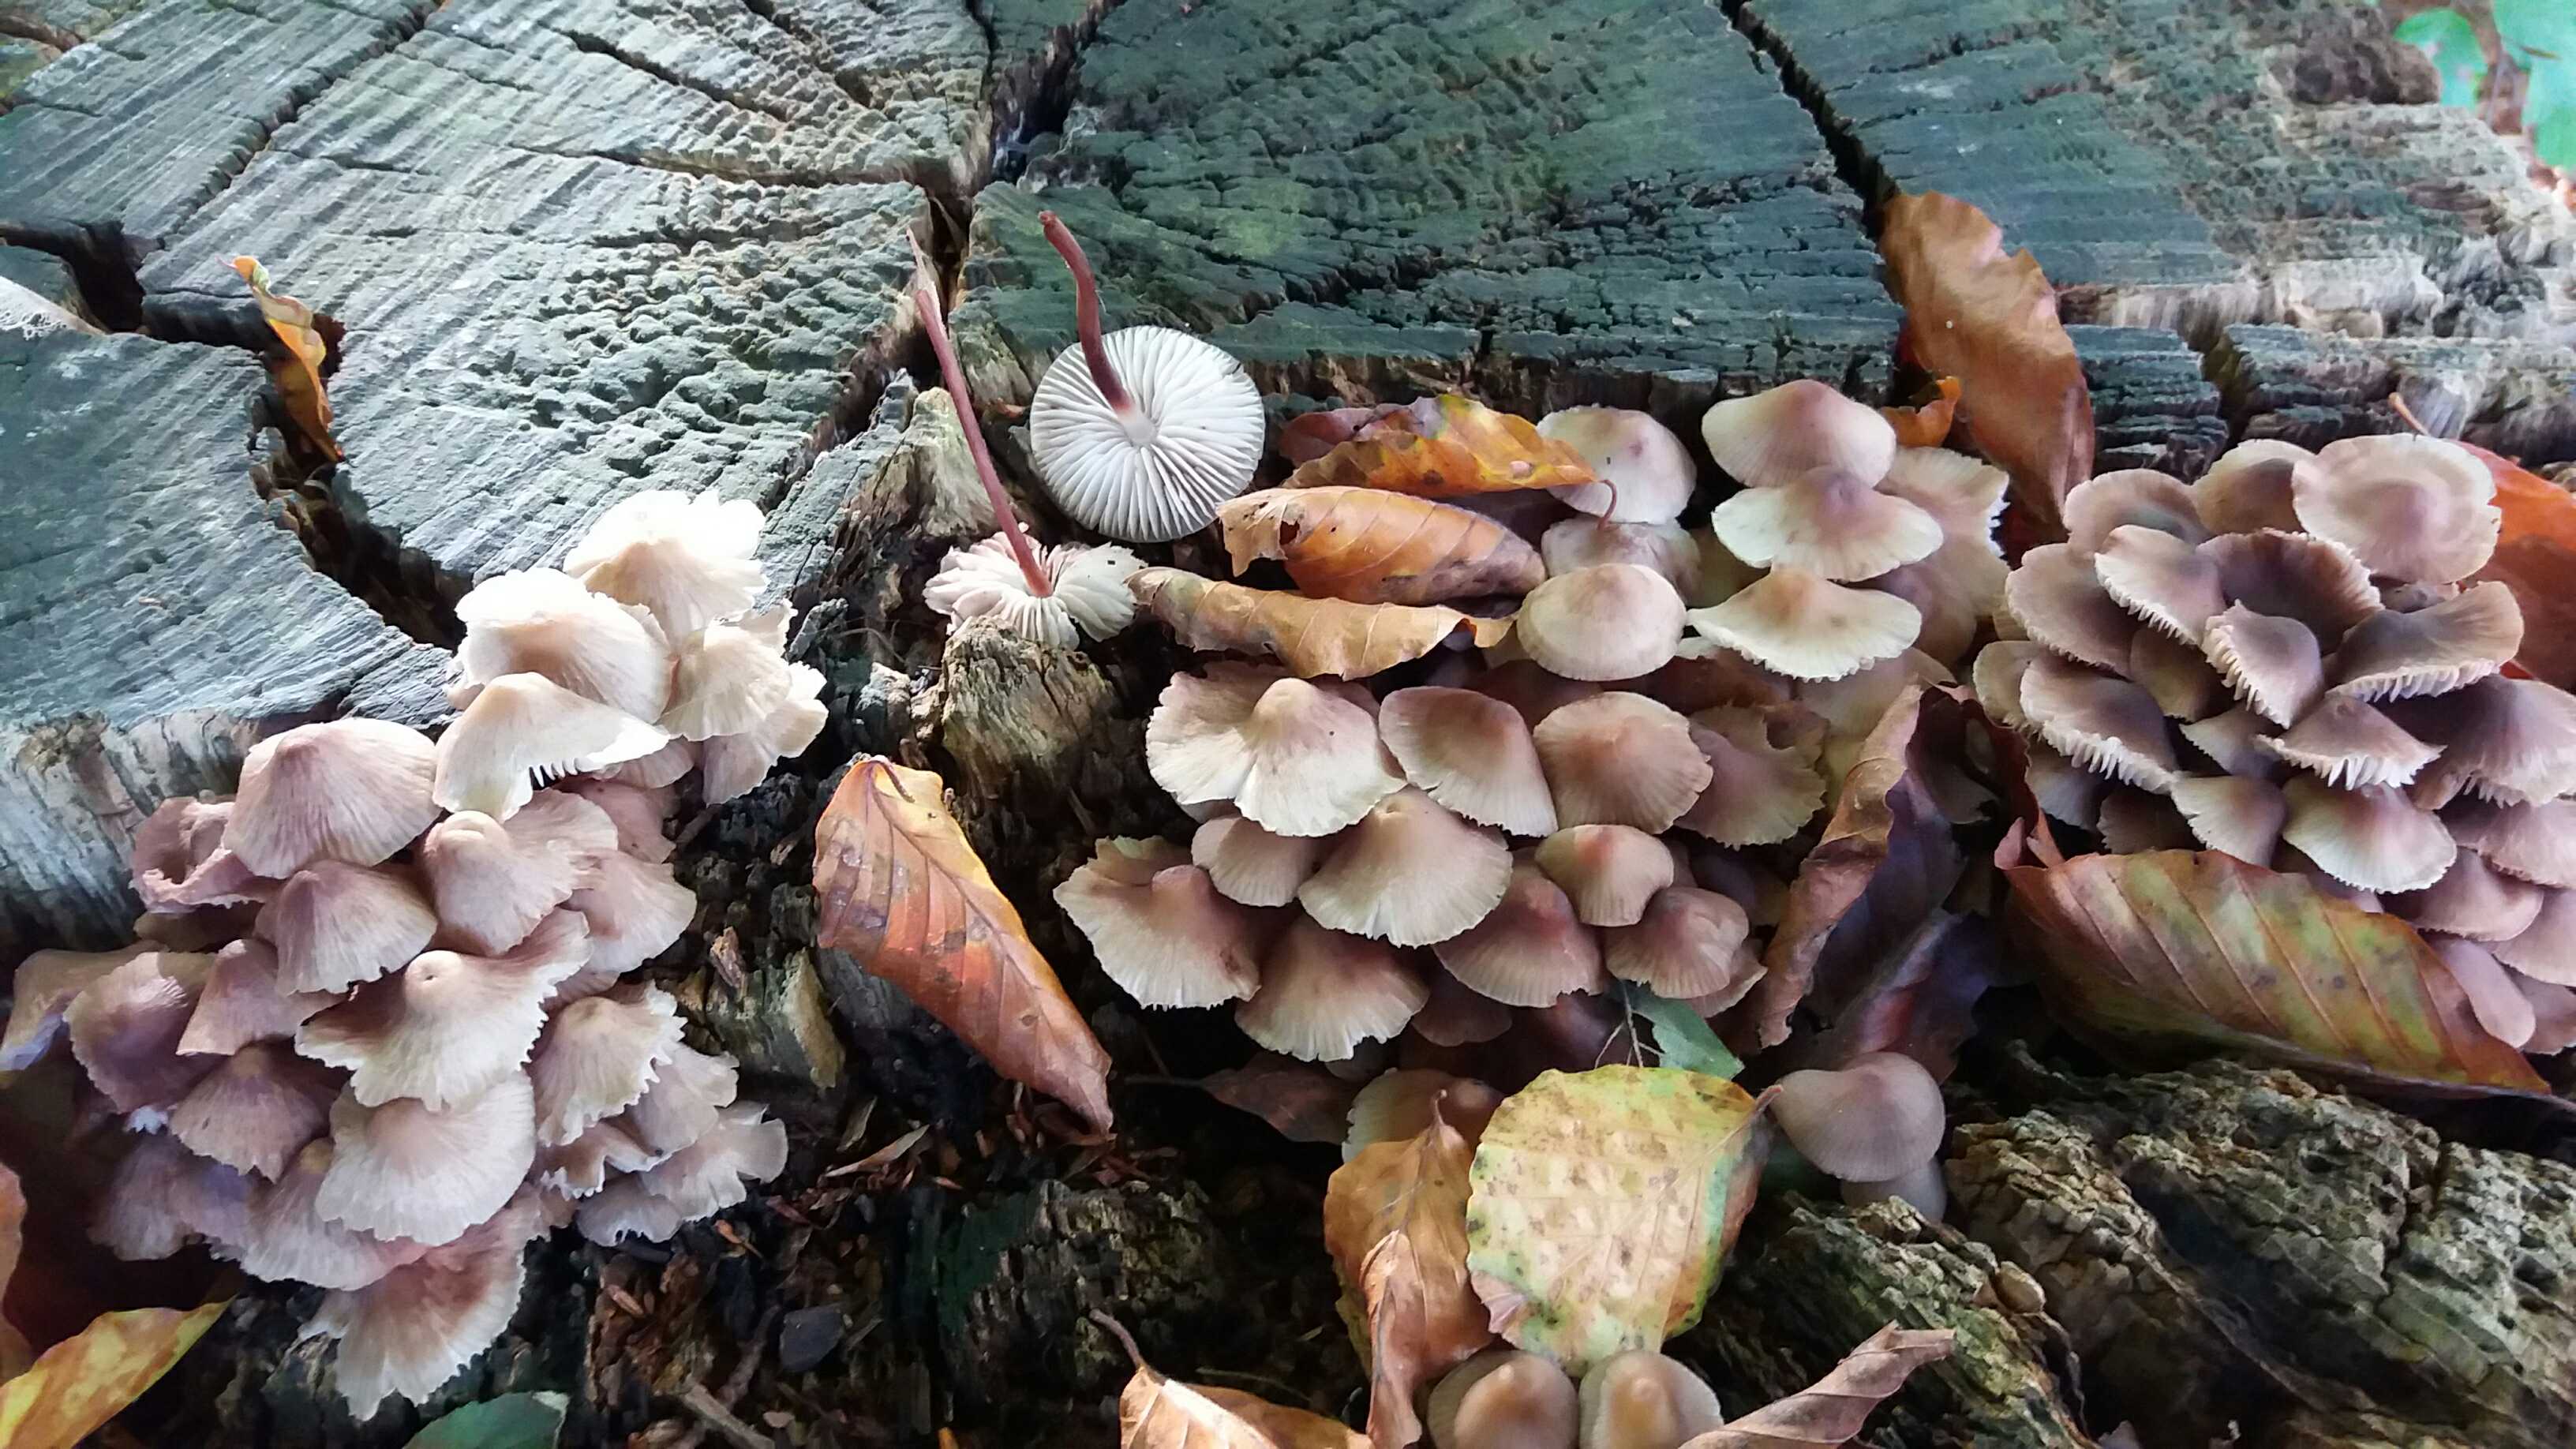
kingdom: Fungi
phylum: Basidiomycota
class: Agaricomycetes
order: Agaricales
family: Mycenaceae
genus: Mycena
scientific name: Mycena inclinata
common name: nikkende huesvamp
